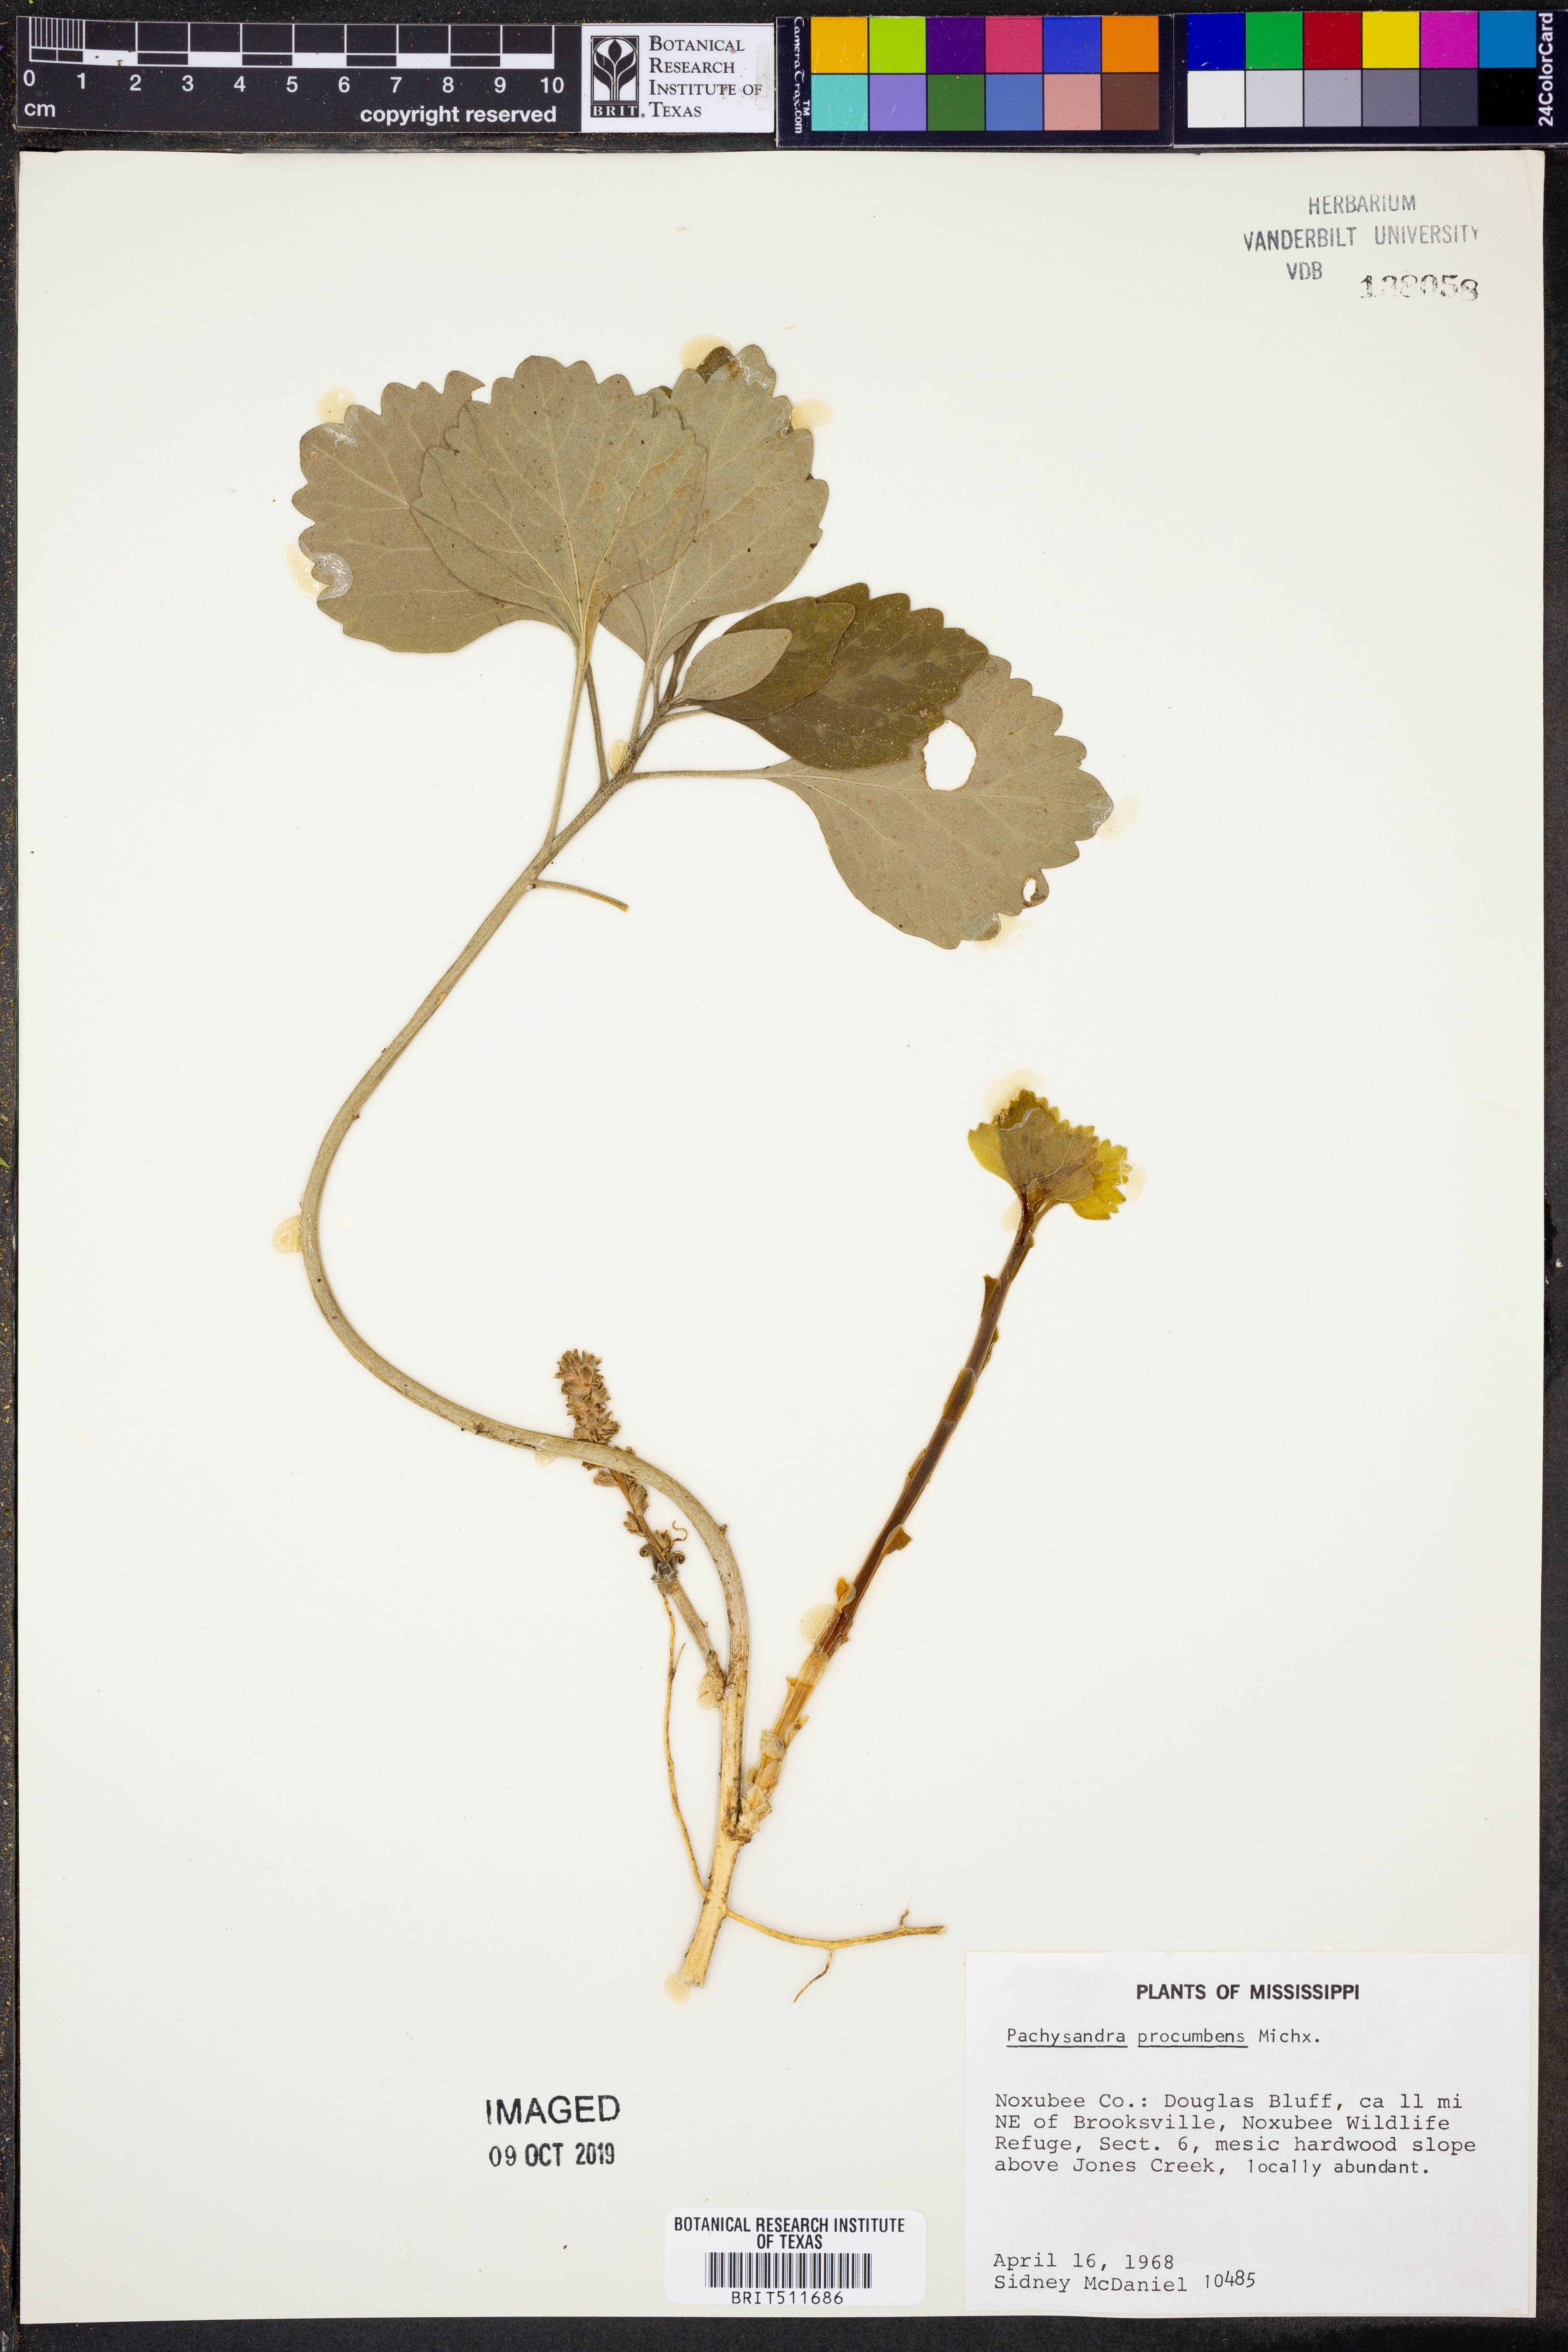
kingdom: Plantae
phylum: Tracheophyta
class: Magnoliopsida
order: Buxales
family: Buxaceae
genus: Pachysandra
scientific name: Pachysandra procumbens
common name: Mountain-spurge
